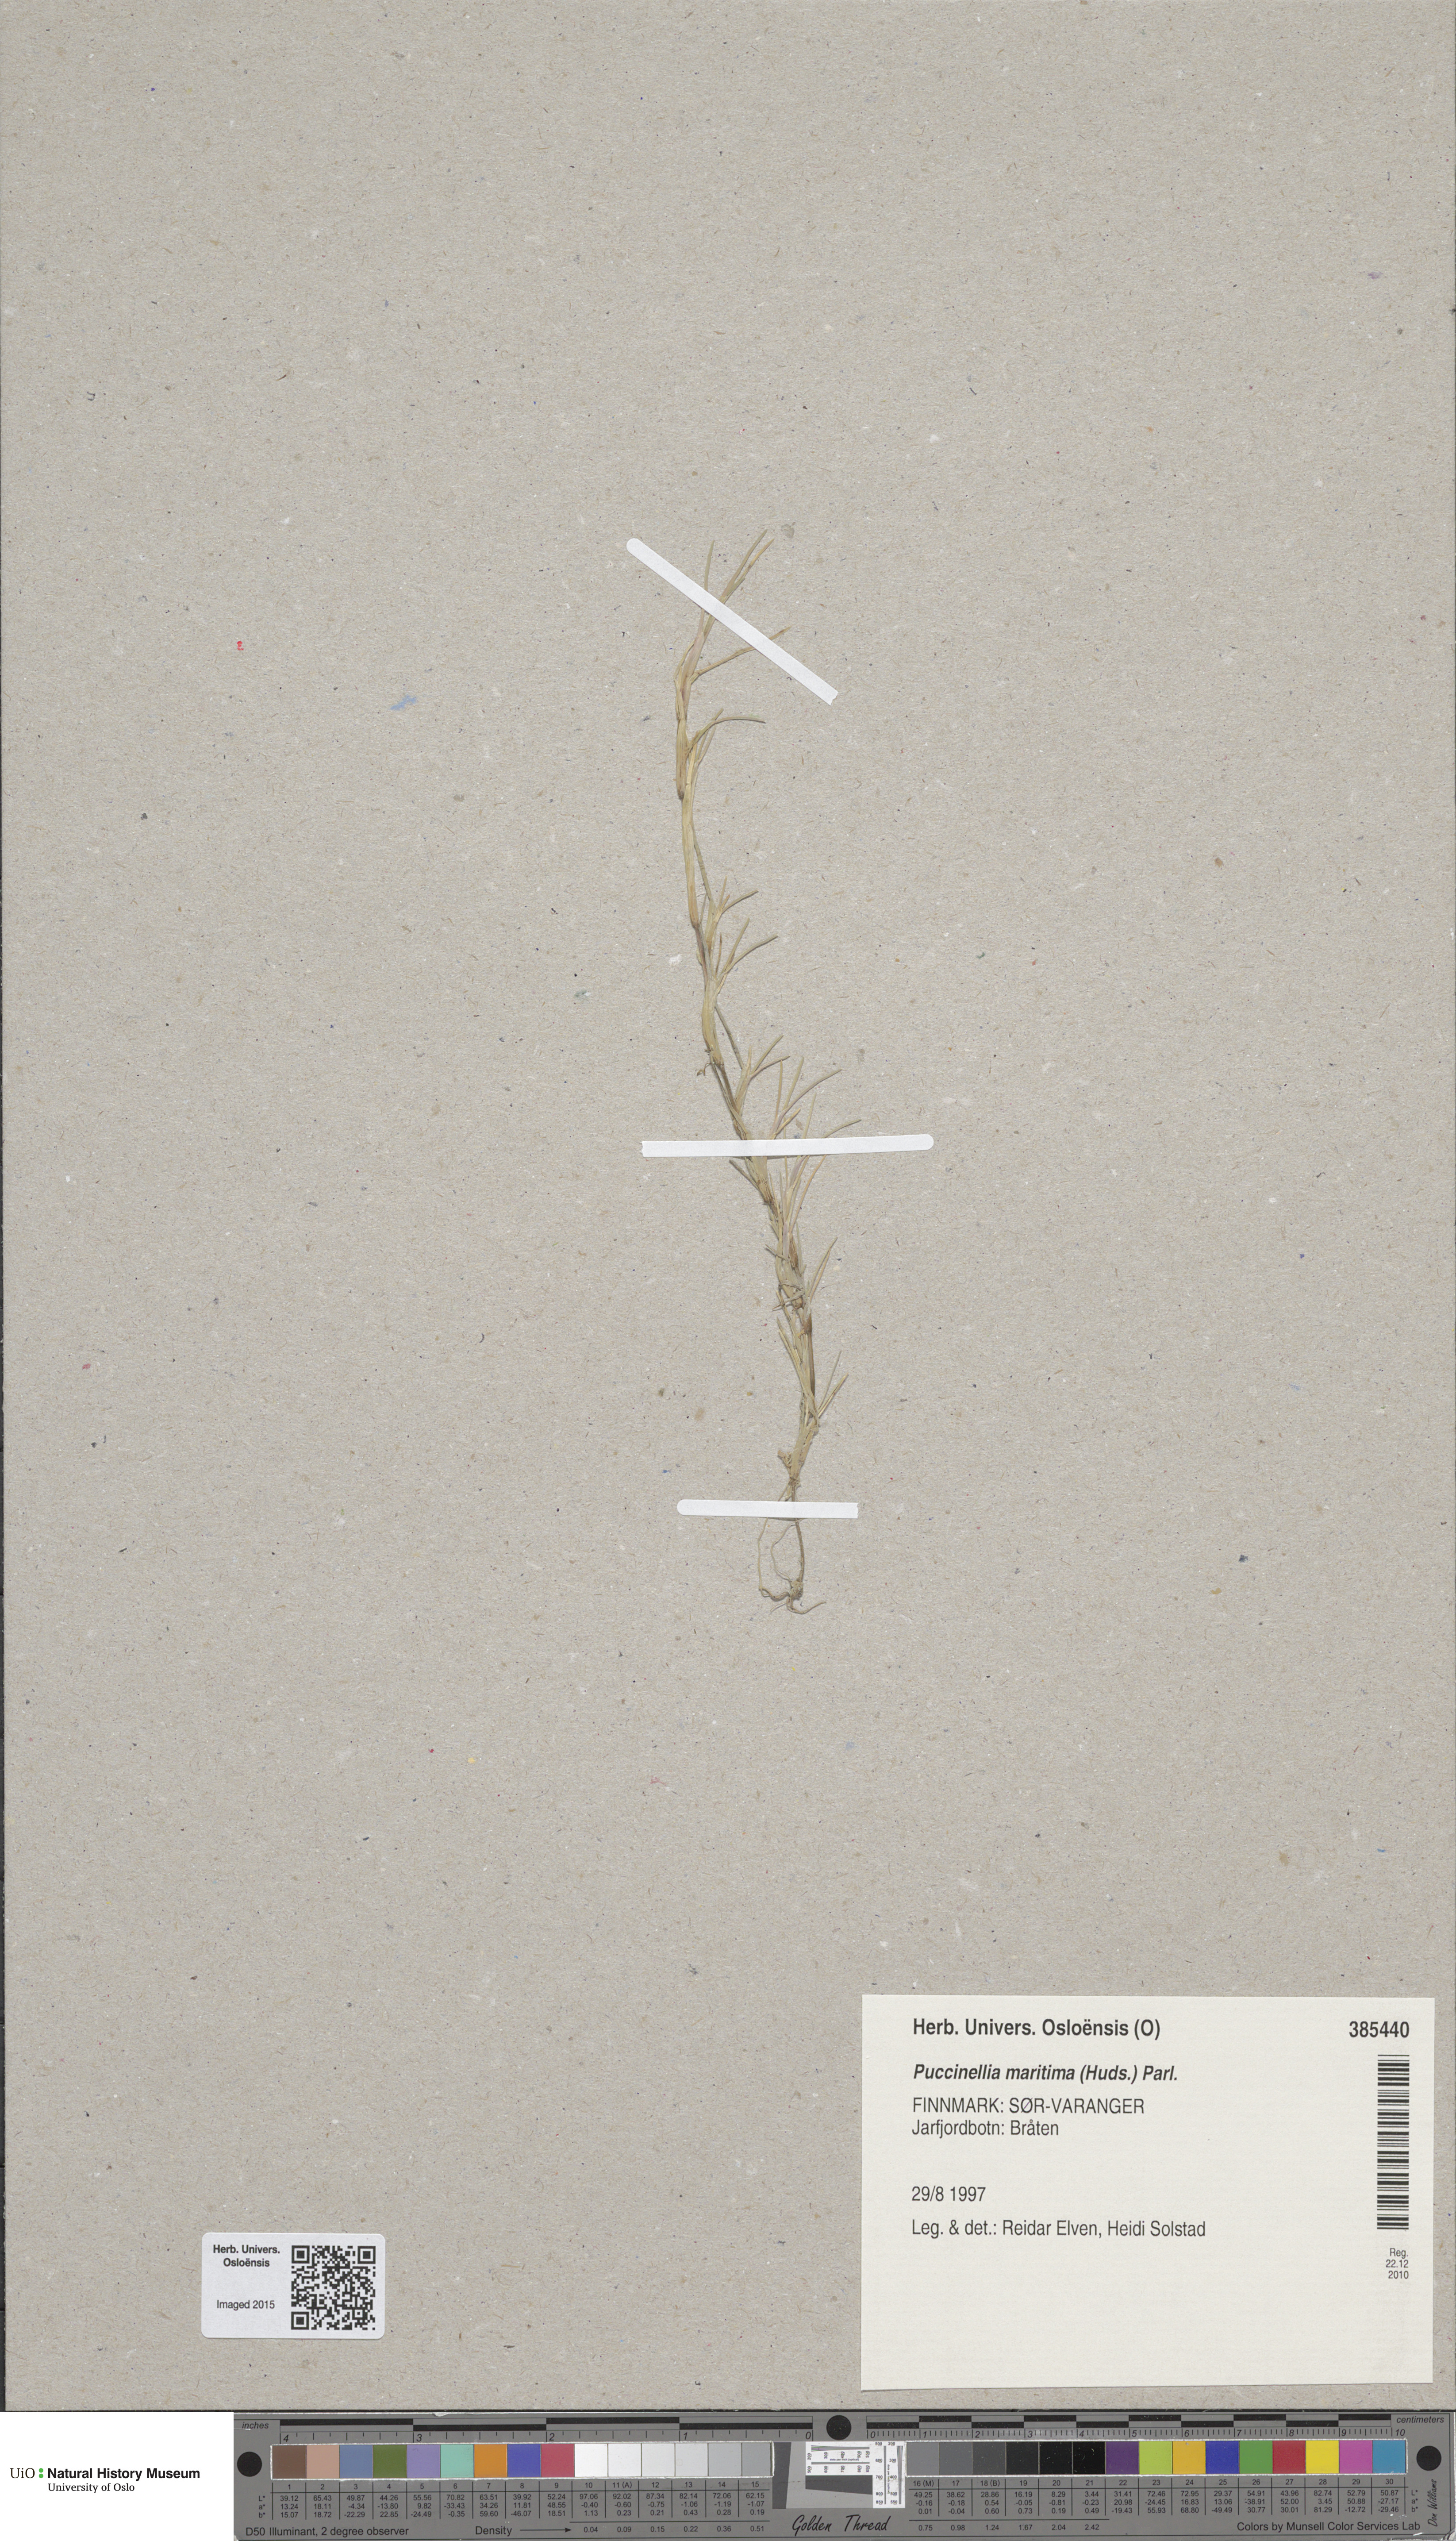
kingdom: Plantae
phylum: Tracheophyta
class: Liliopsida
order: Poales
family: Poaceae
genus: Puccinellia
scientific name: Puccinellia maritima
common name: Common saltmarsh grass
